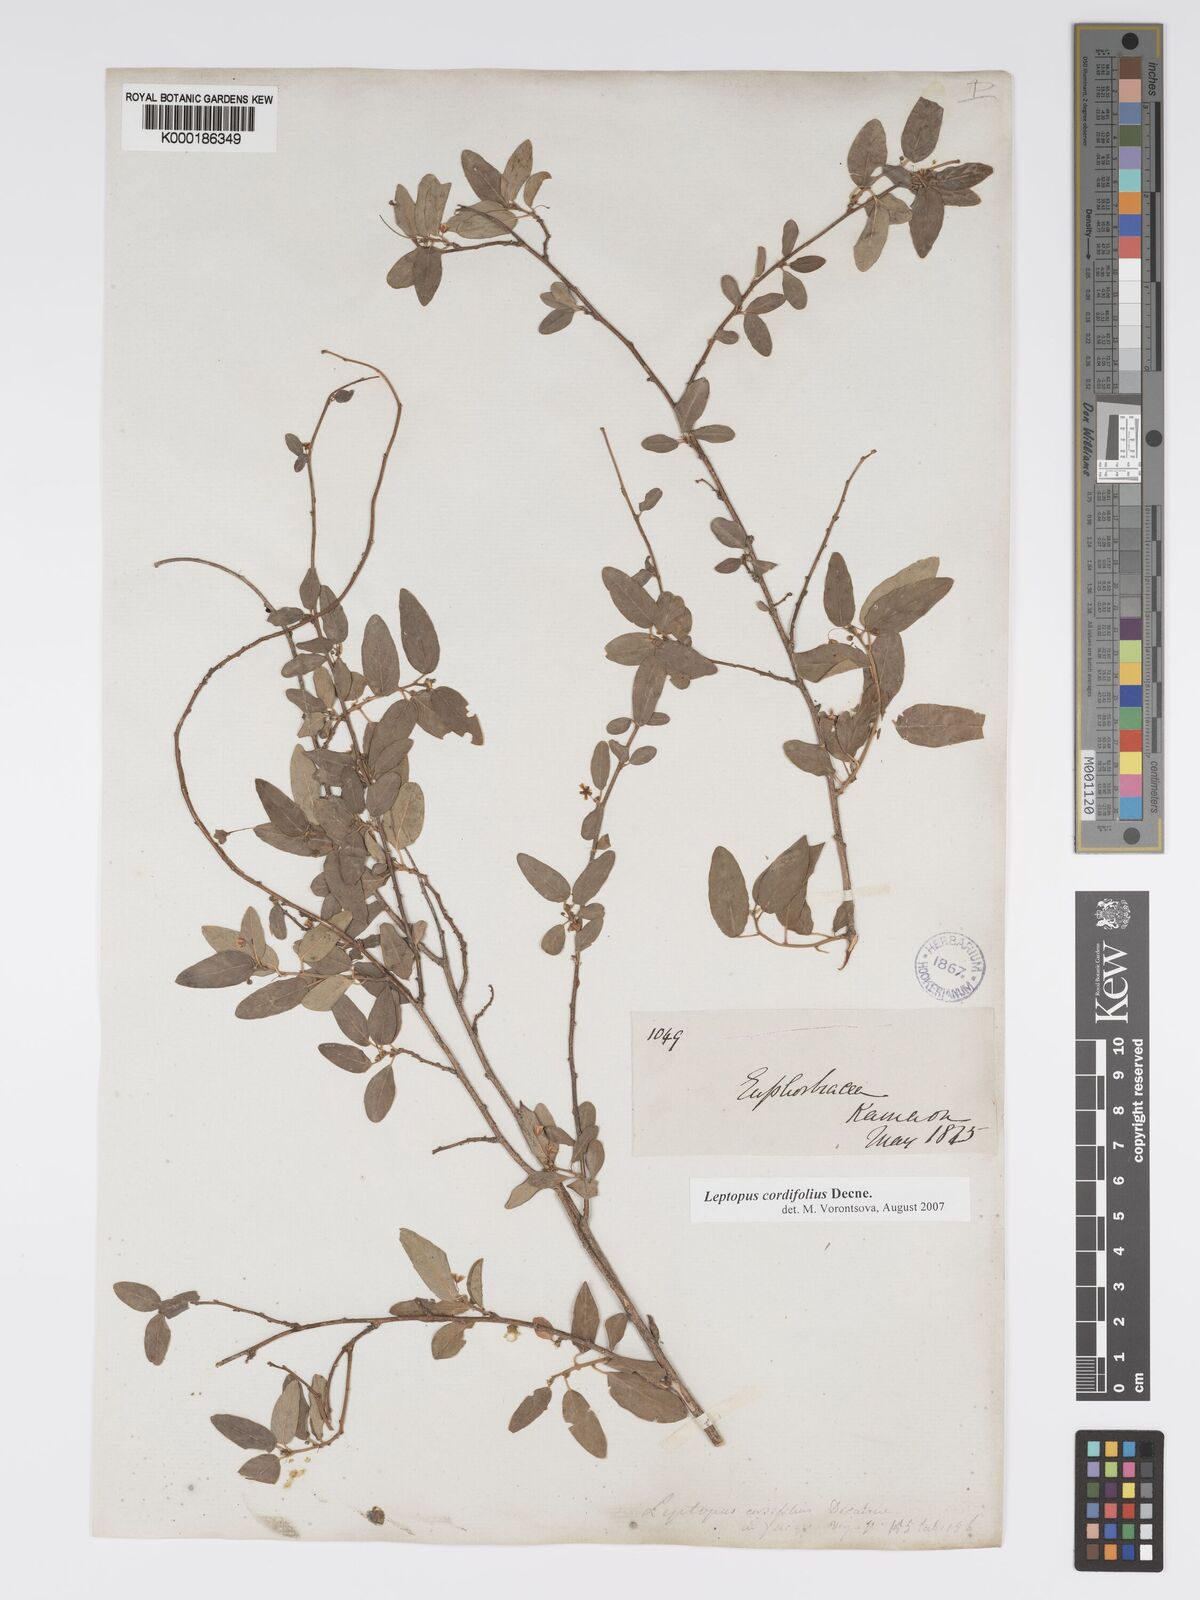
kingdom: Plantae
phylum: Tracheophyta
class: Magnoliopsida
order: Malpighiales
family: Phyllanthaceae
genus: Leptopus
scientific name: Leptopus cordifolius
